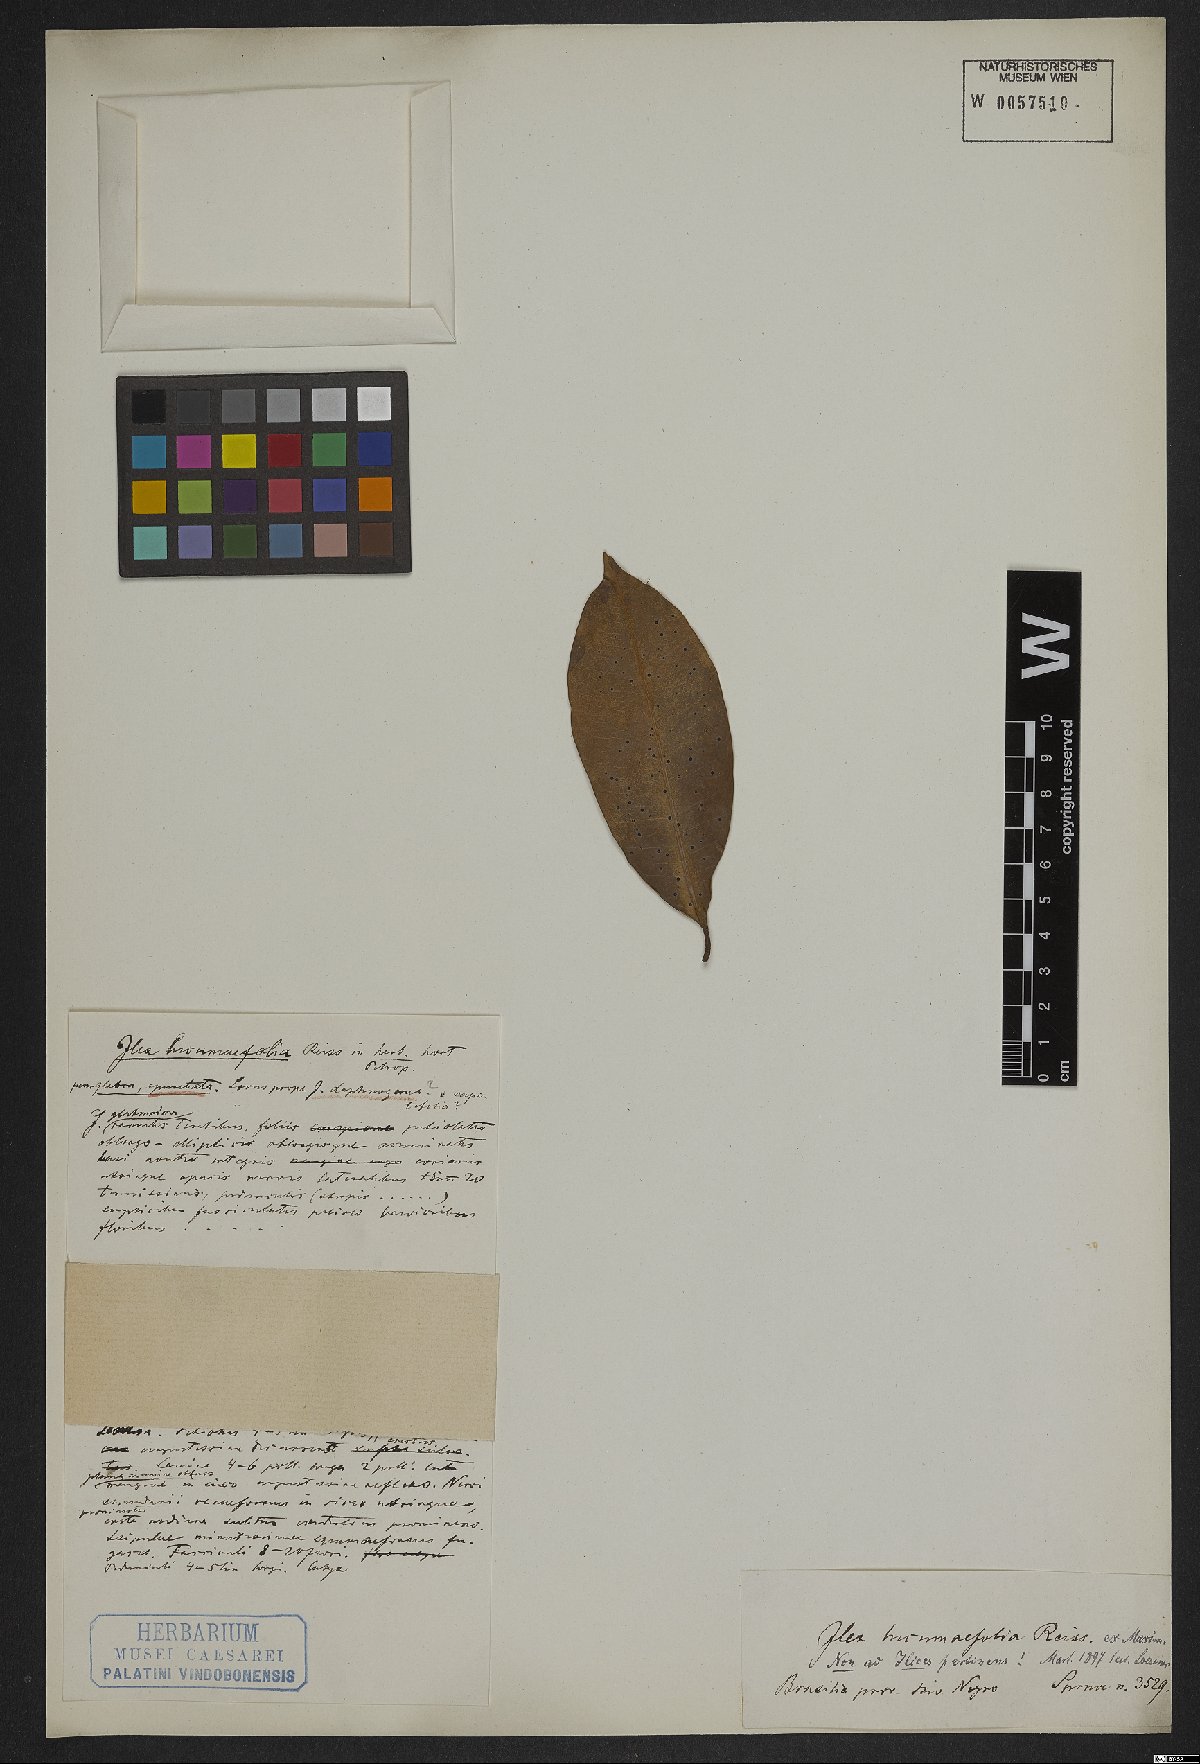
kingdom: Plantae
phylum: Tracheophyta
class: Magnoliopsida
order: Ericales
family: Sapotaceae
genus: Pouteria
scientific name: Pouteria lucumifolia
